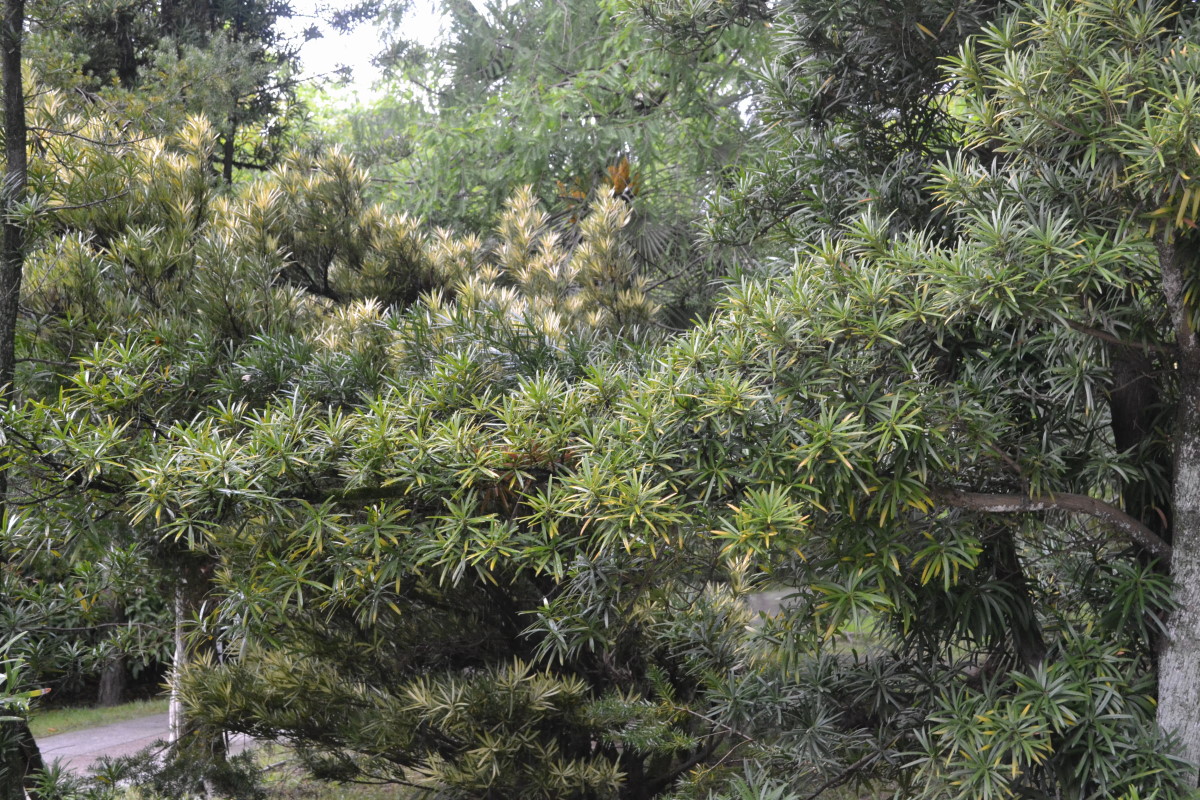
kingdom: Plantae
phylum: Tracheophyta
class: Pinopsida
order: Pinales
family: Podocarpaceae
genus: Podocarpus
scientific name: Podocarpus macrophyllus
